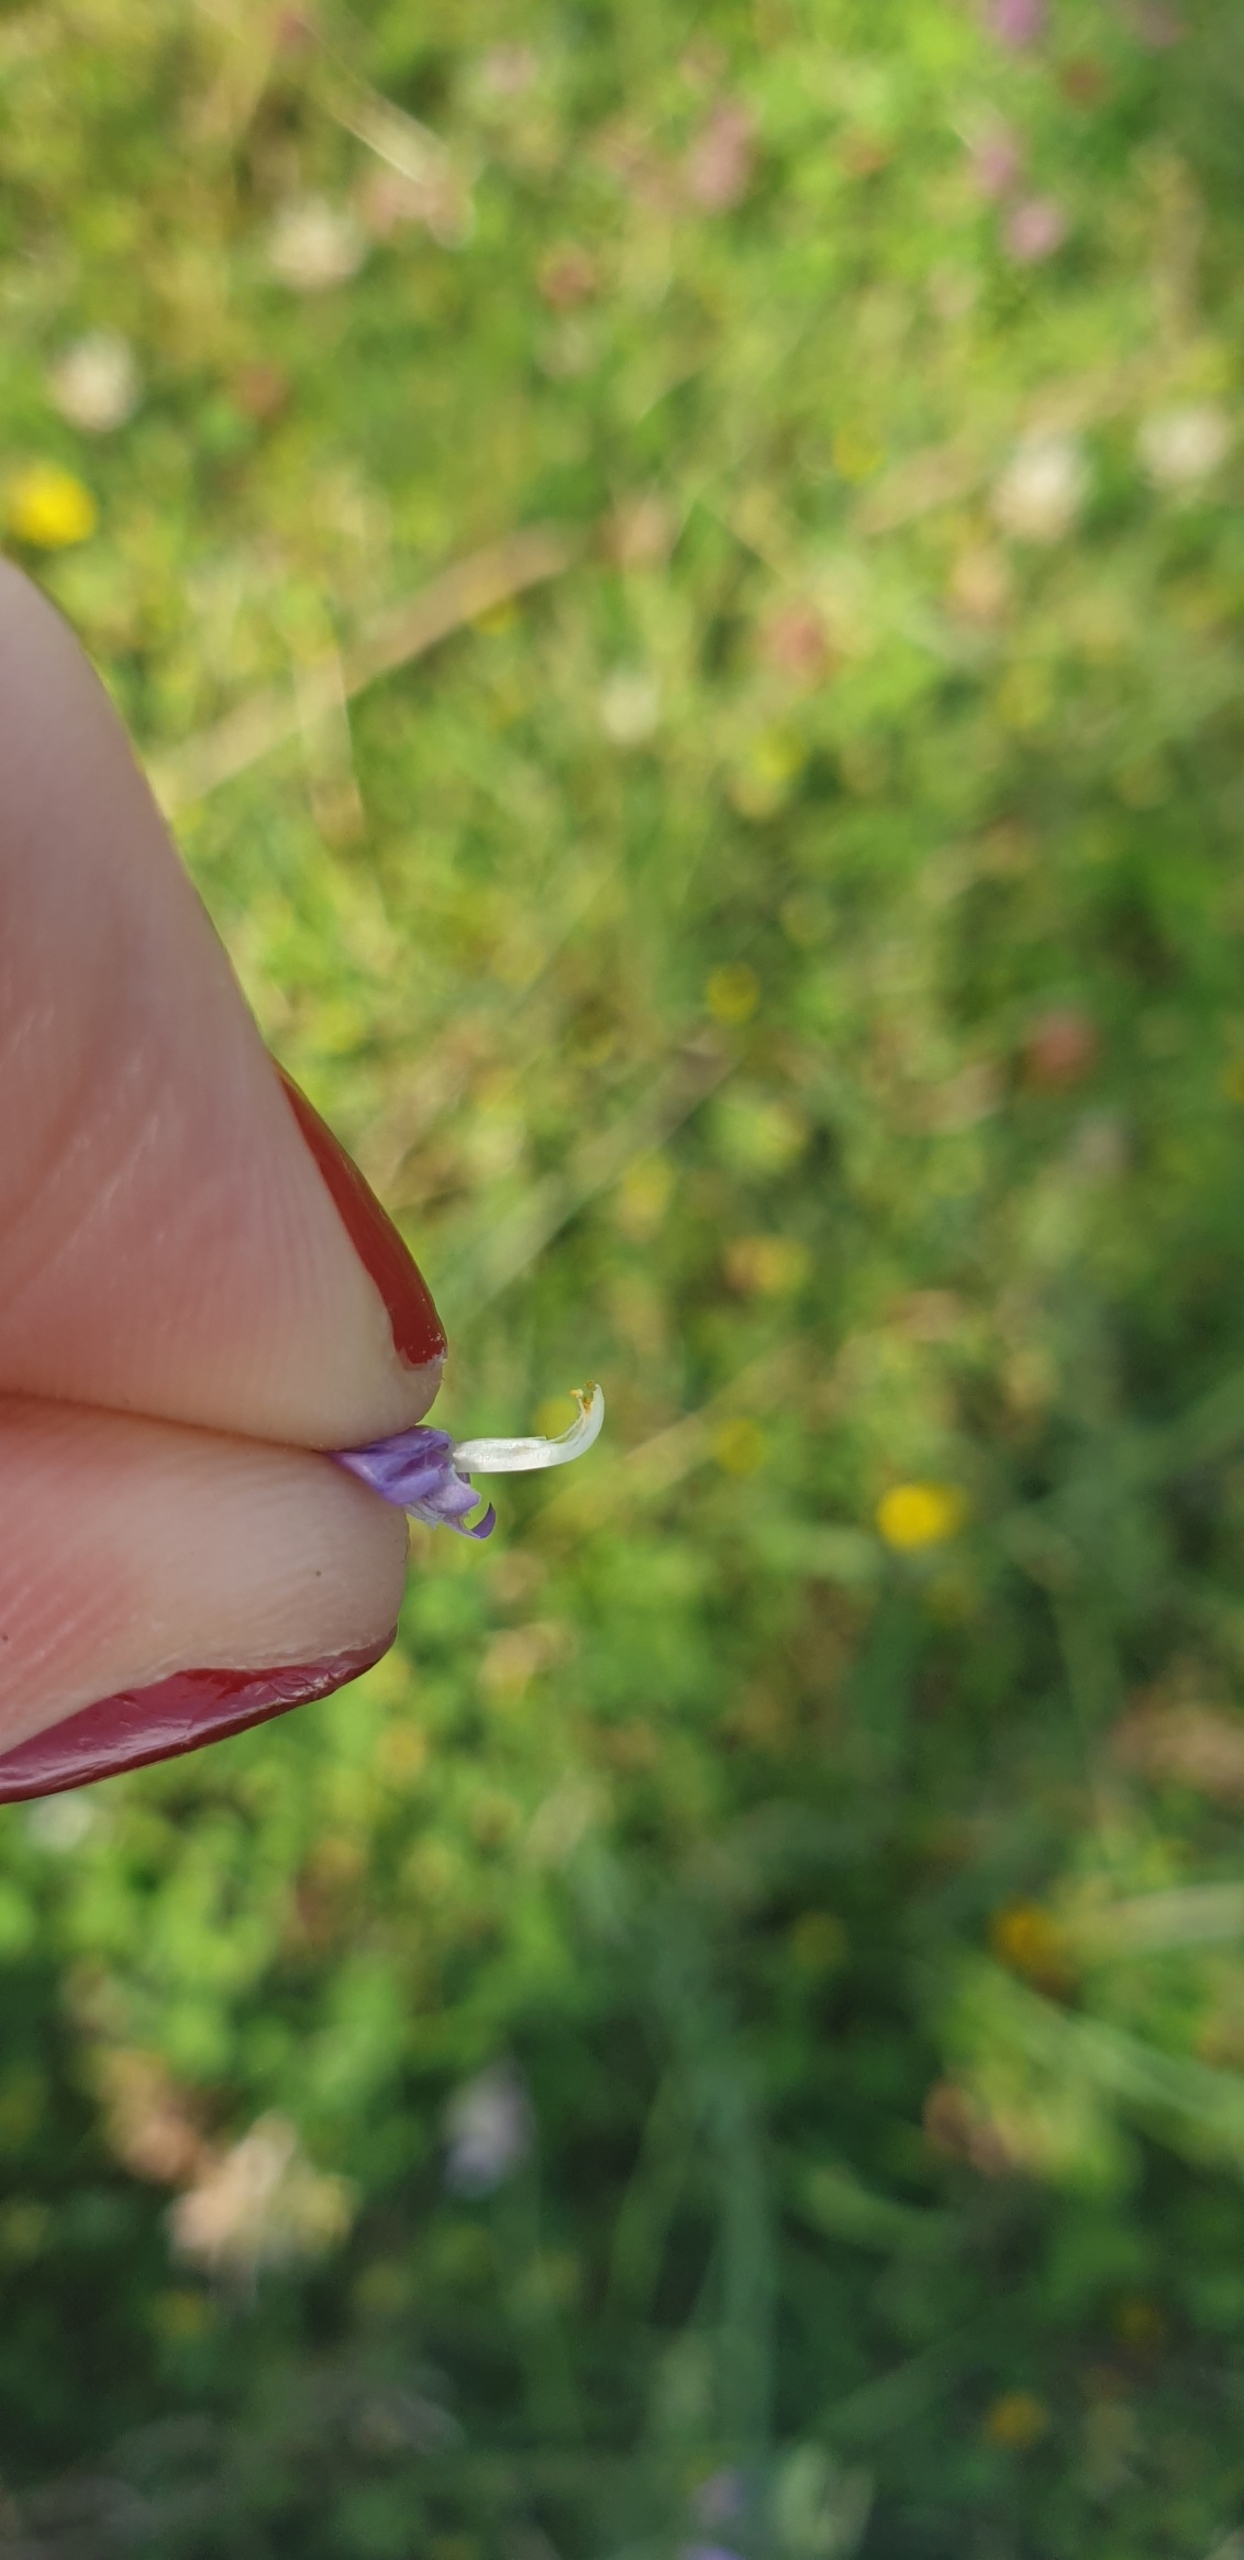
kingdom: Plantae
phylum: Tracheophyta
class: Magnoliopsida
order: Fabales
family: Fabaceae
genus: Vicia
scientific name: Vicia cracca
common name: Muse-vikke
